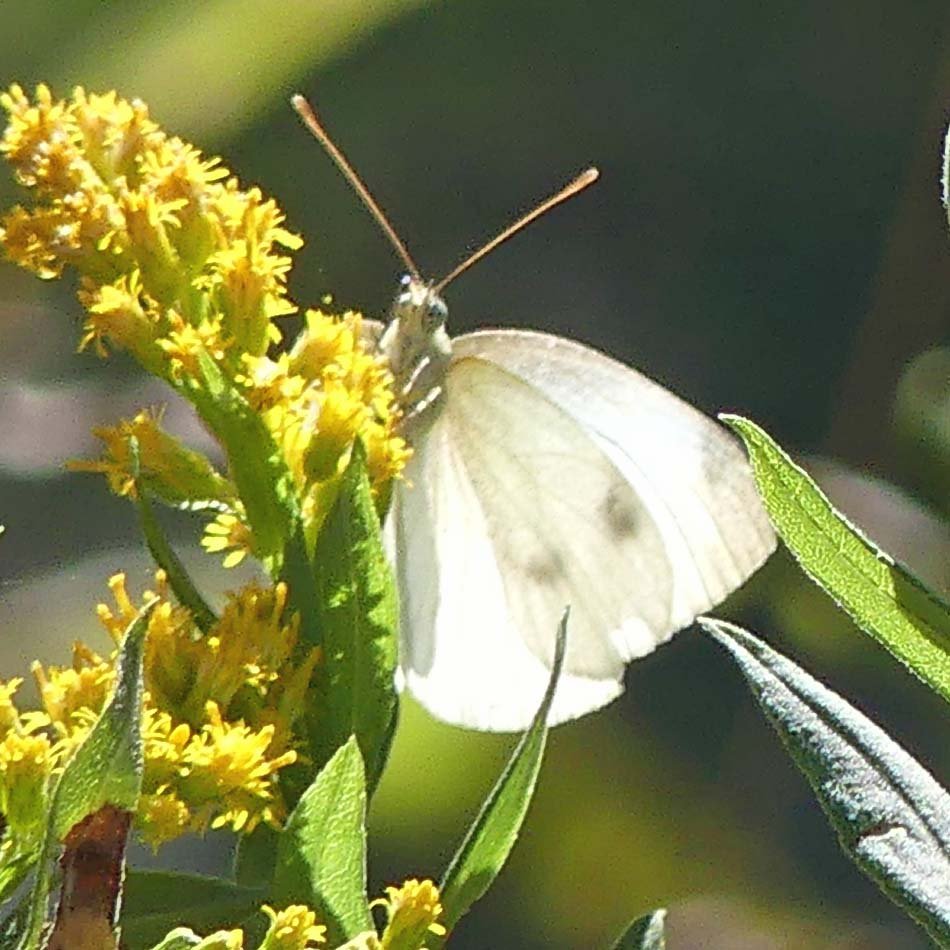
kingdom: Animalia
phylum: Arthropoda
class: Insecta
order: Lepidoptera
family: Pieridae
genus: Pieris
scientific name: Pieris rapae
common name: Cabbage White
